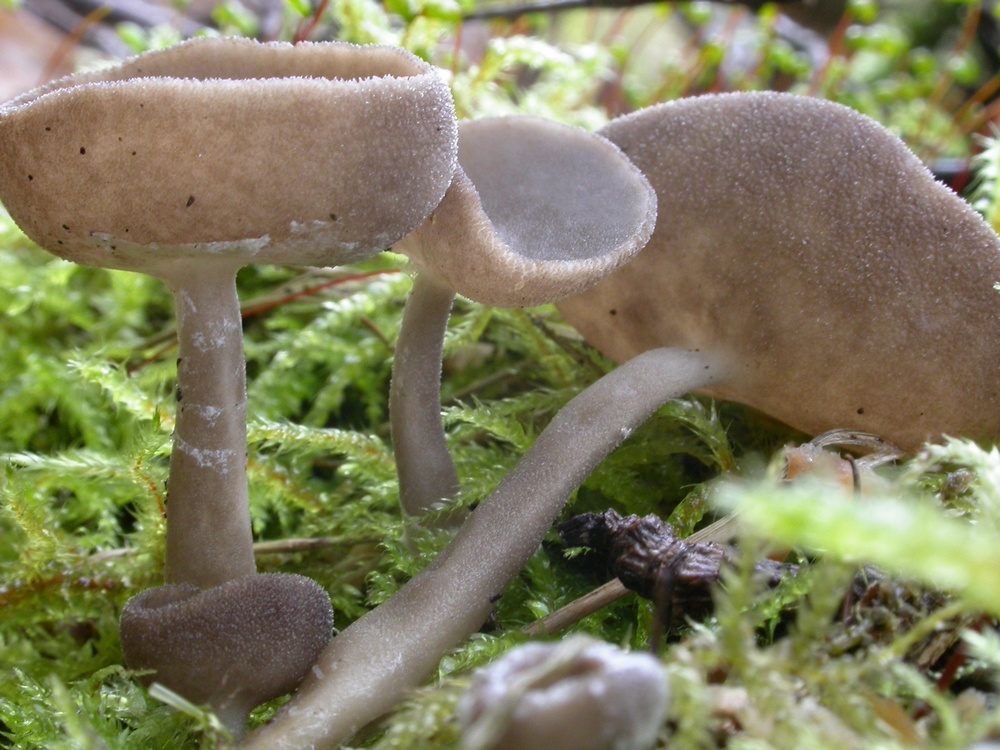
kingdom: Fungi
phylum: Ascomycota
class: Pezizomycetes
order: Pezizales
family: Helvellaceae
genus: Helvella
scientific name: Helvella macropus
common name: højstokket foldhat
